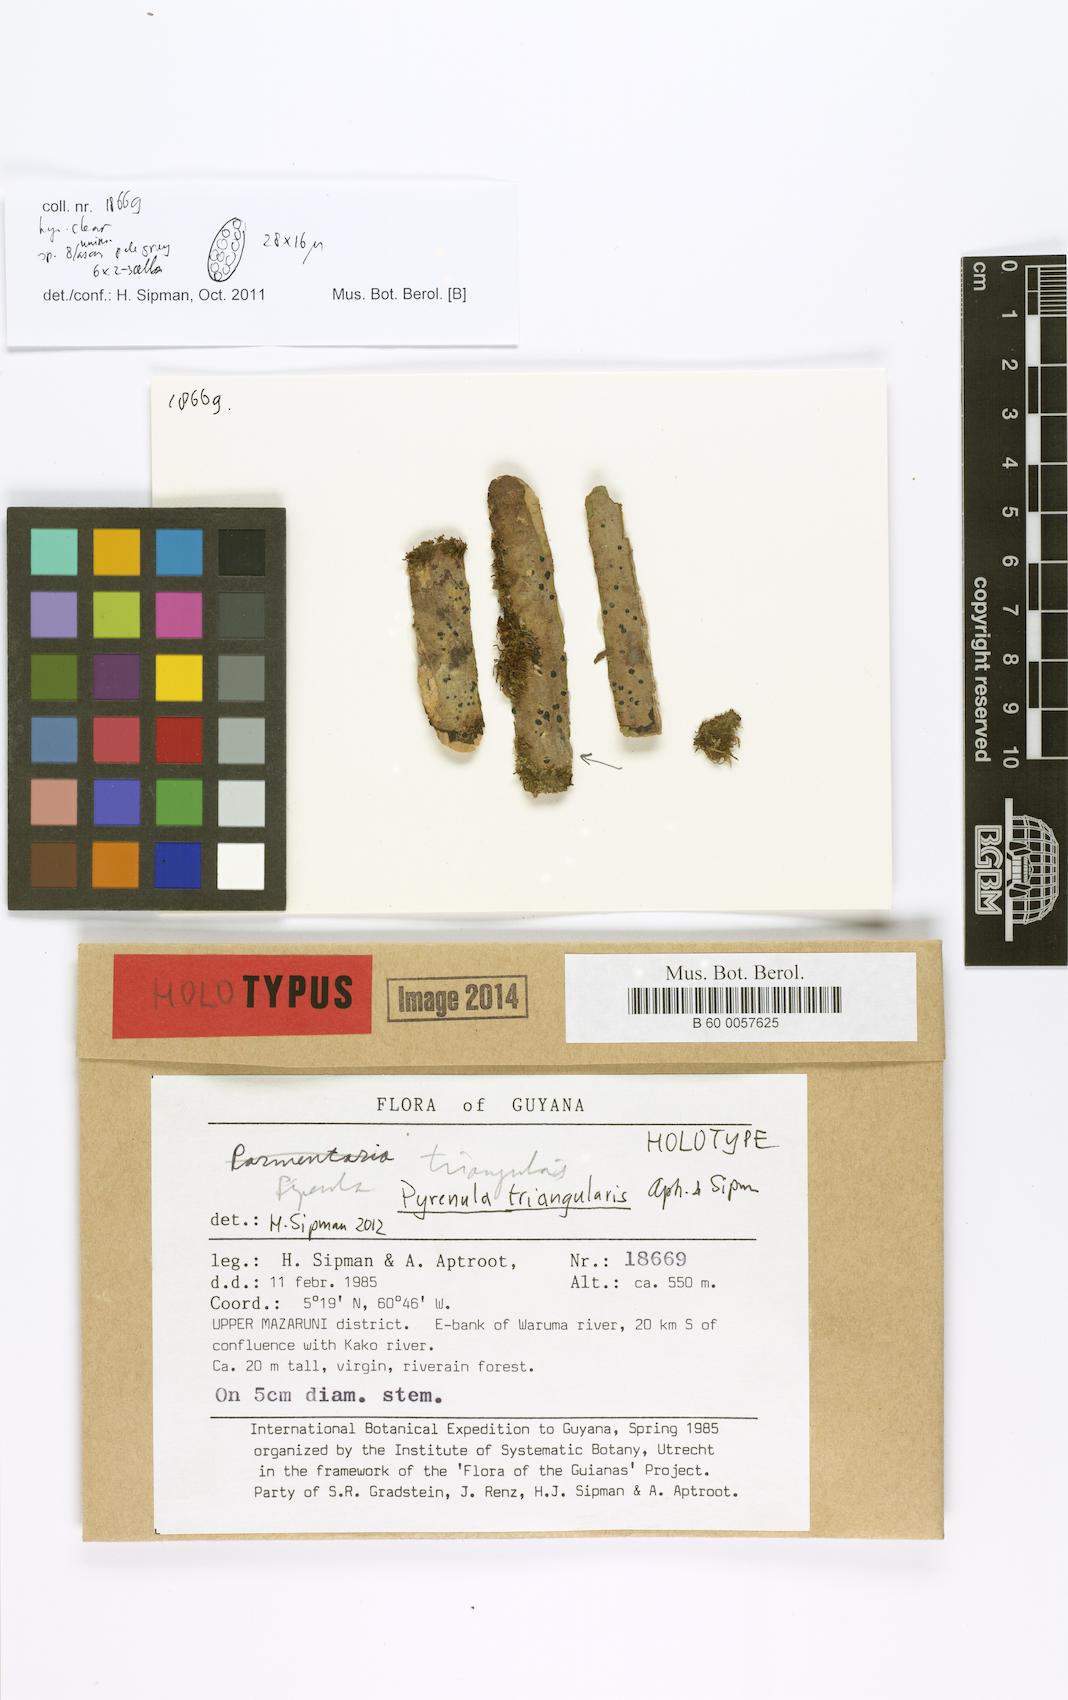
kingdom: Fungi
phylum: Ascomycota
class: Eurotiomycetes
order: Pyrenulales
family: Pyrenulaceae
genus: Pyrenula
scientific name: Pyrenula triangularis
